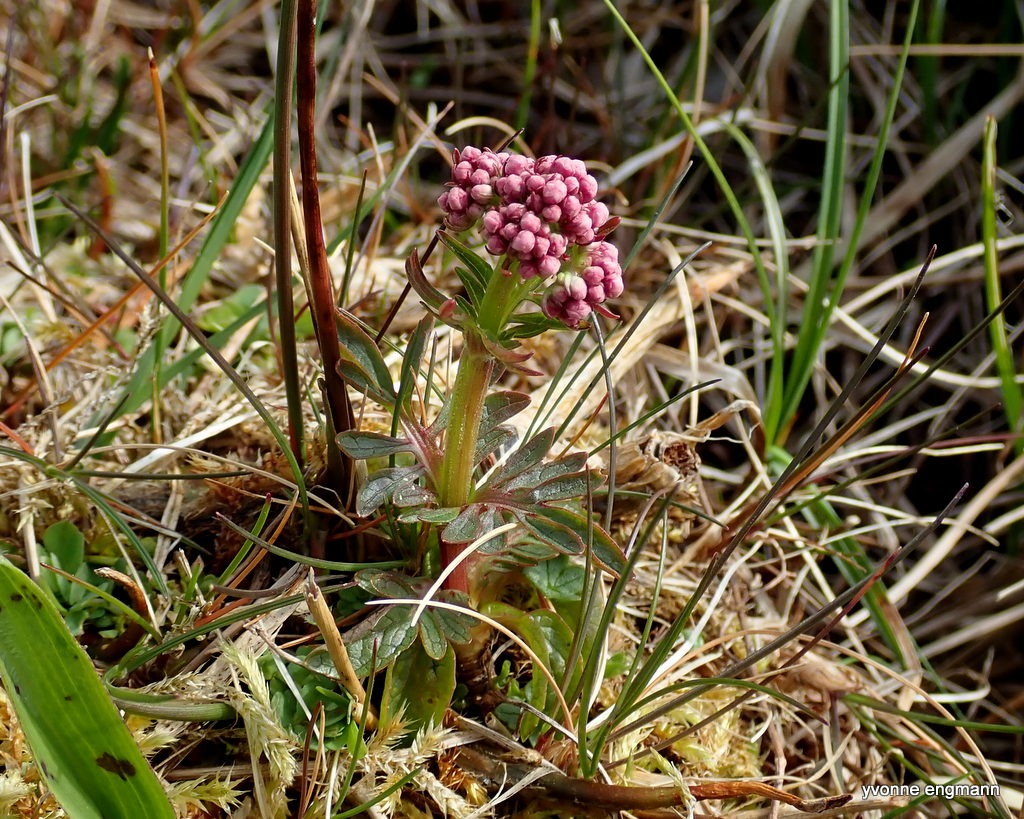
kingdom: Plantae
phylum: Tracheophyta
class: Magnoliopsida
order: Dipsacales
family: Caprifoliaceae
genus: Valeriana
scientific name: Valeriana dioica
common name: Tvebo baldrian
